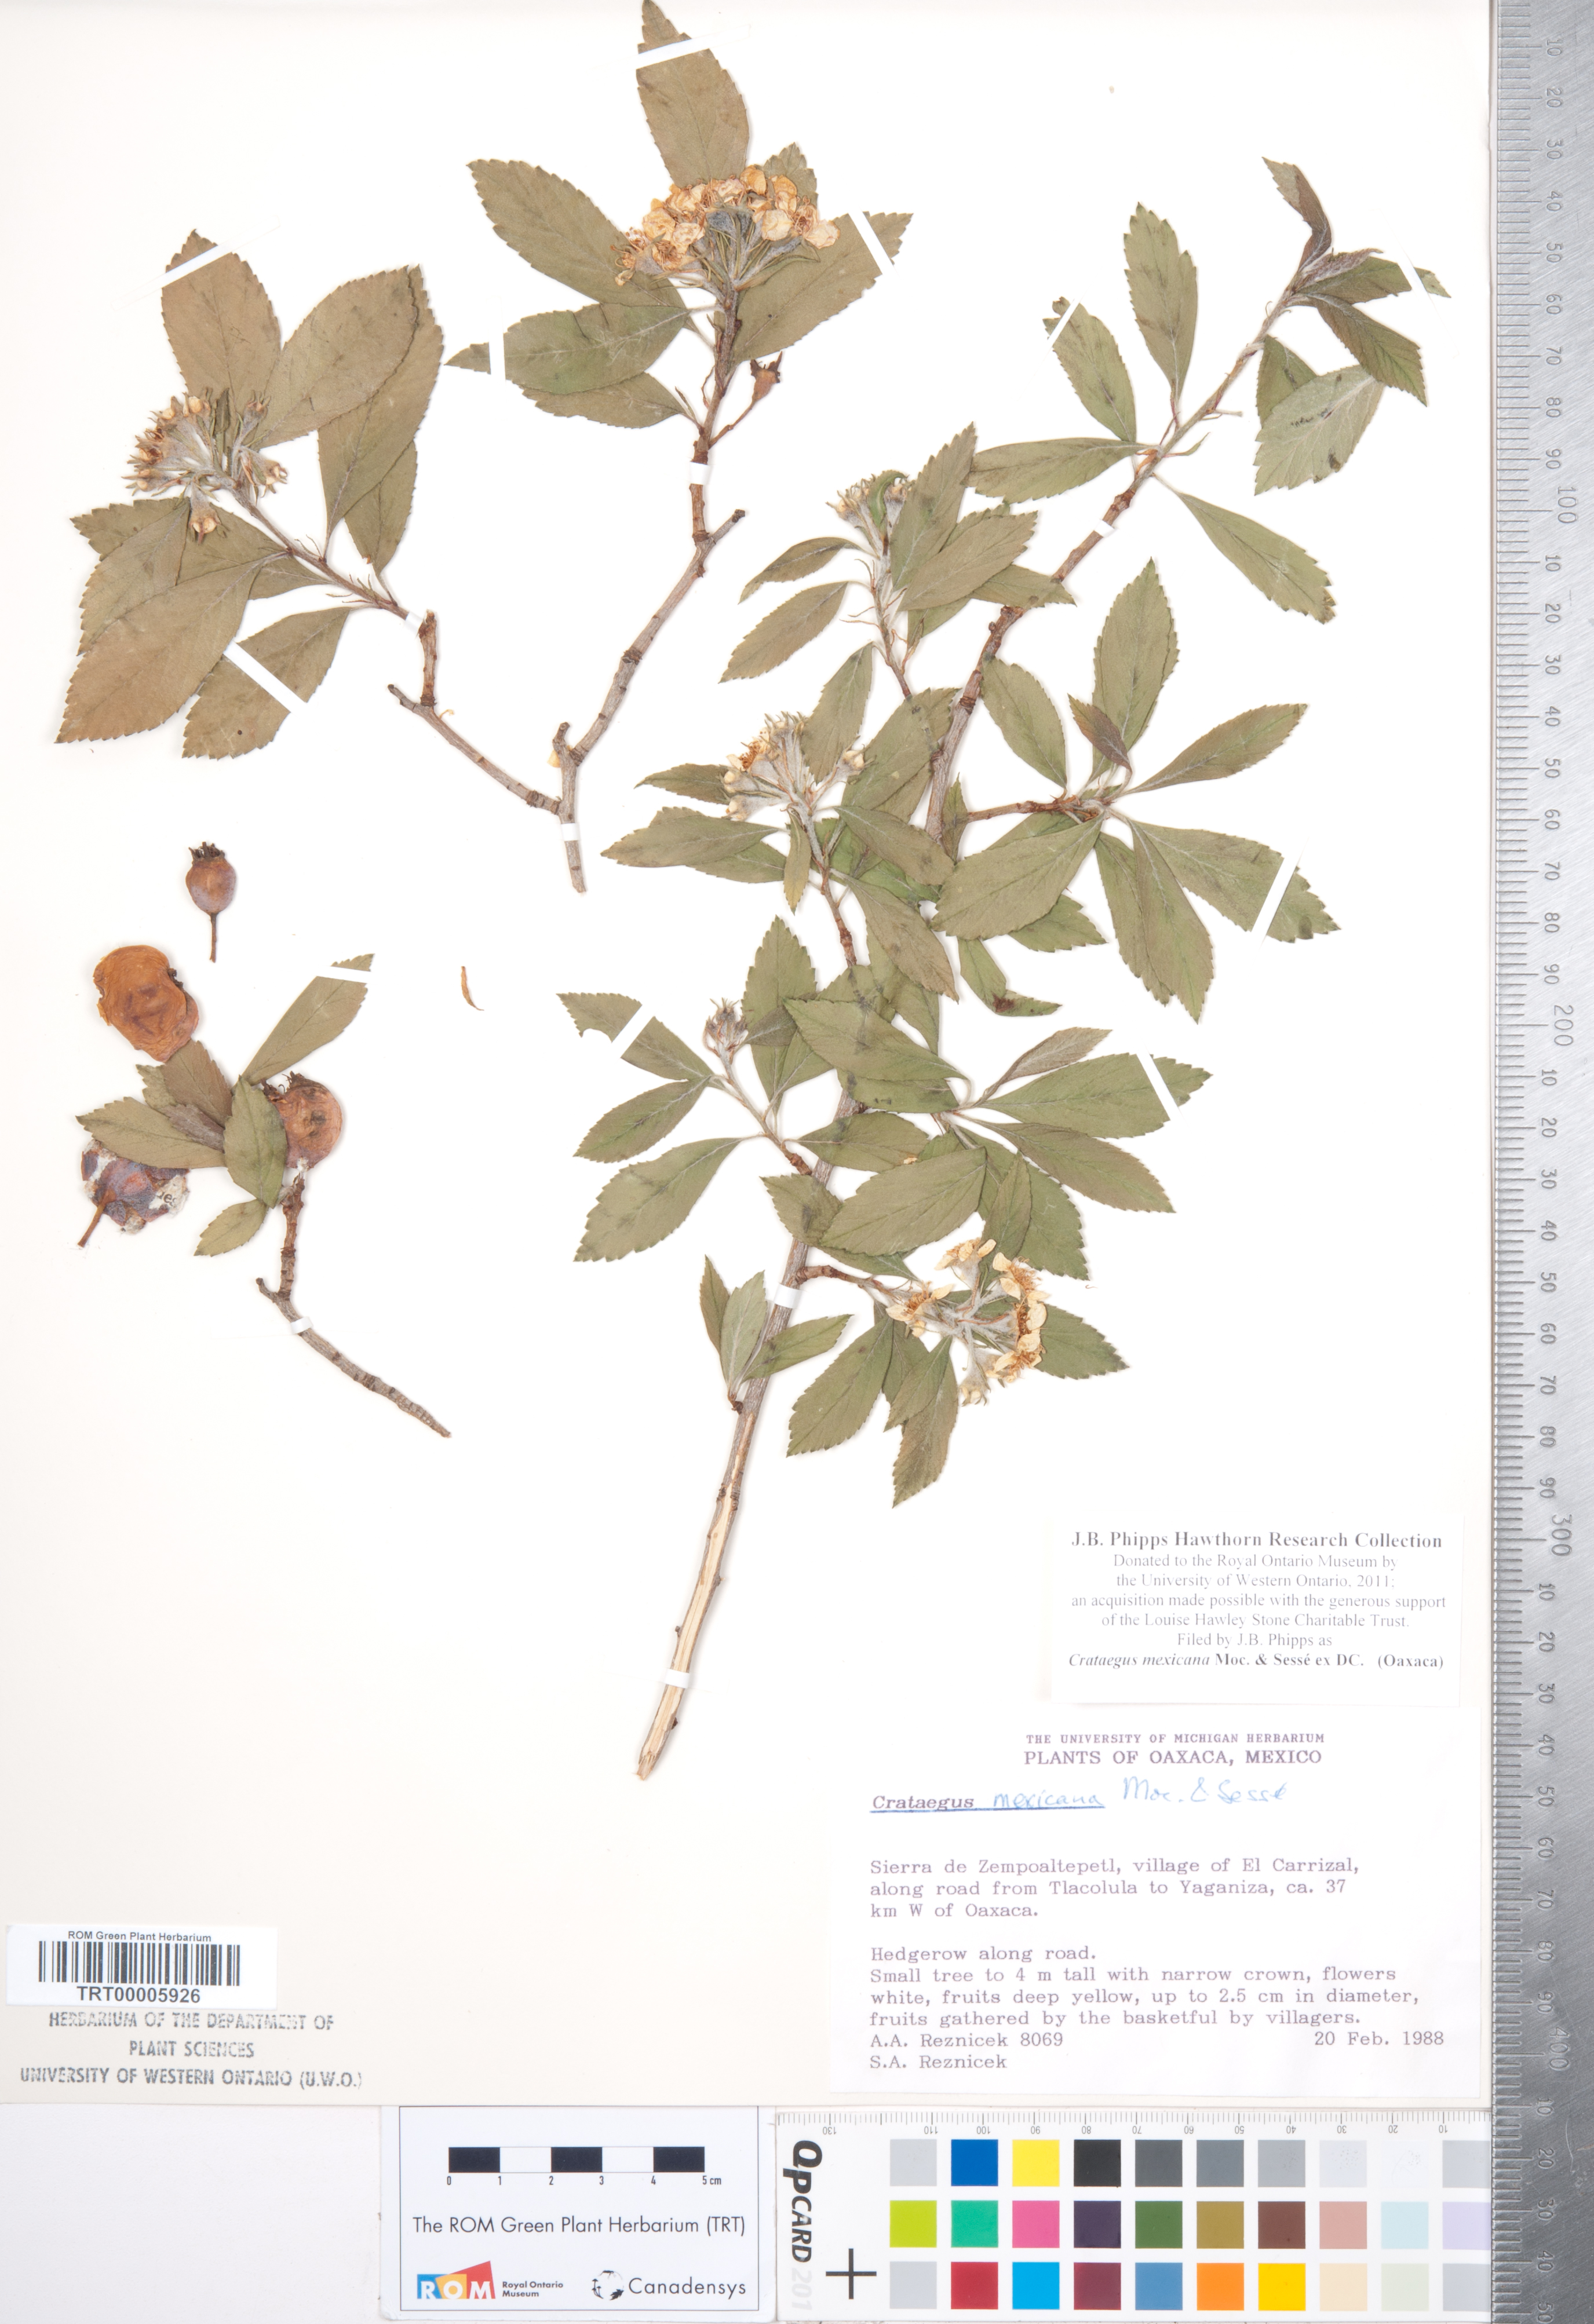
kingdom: Plantae
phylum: Tracheophyta
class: Magnoliopsida
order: Rosales
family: Rosaceae
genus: Crataegus
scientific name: Crataegus mexicana
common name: Mexican hawthorn
